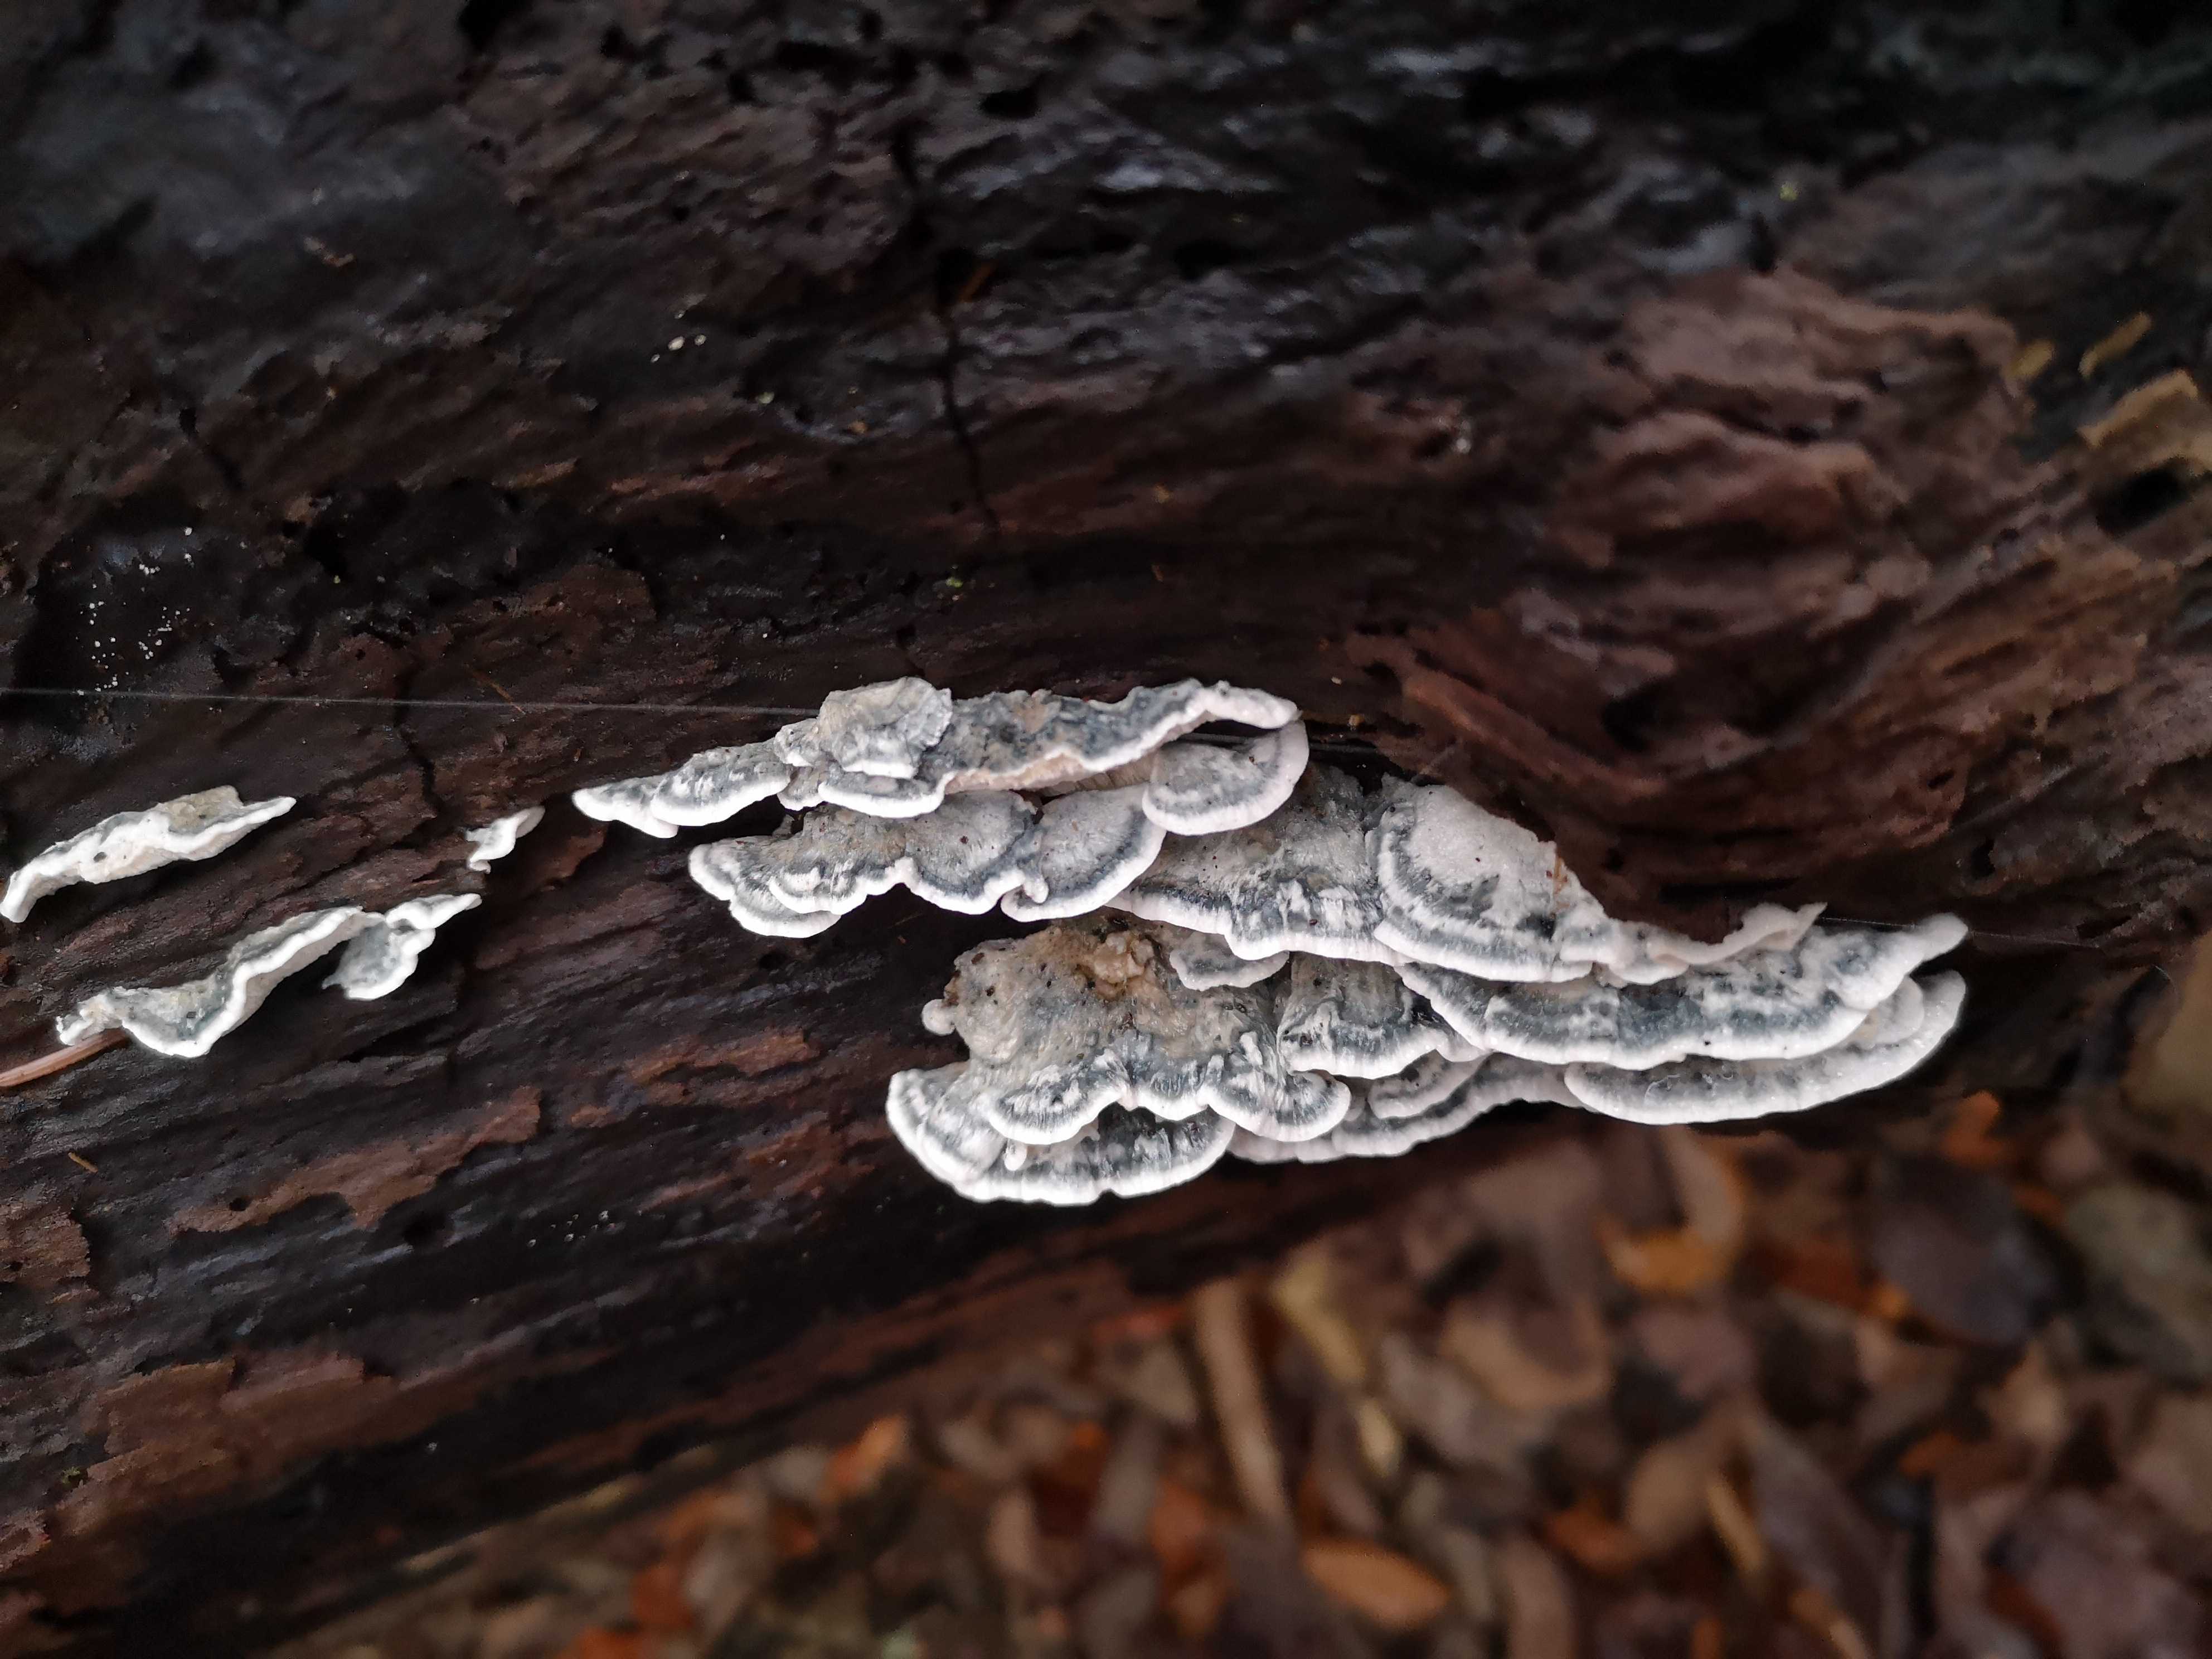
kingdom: Fungi
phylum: Basidiomycota
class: Agaricomycetes
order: Polyporales
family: Polyporaceae
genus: Cyanosporus
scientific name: Cyanosporus alni
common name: blegblå kødporesvamp
